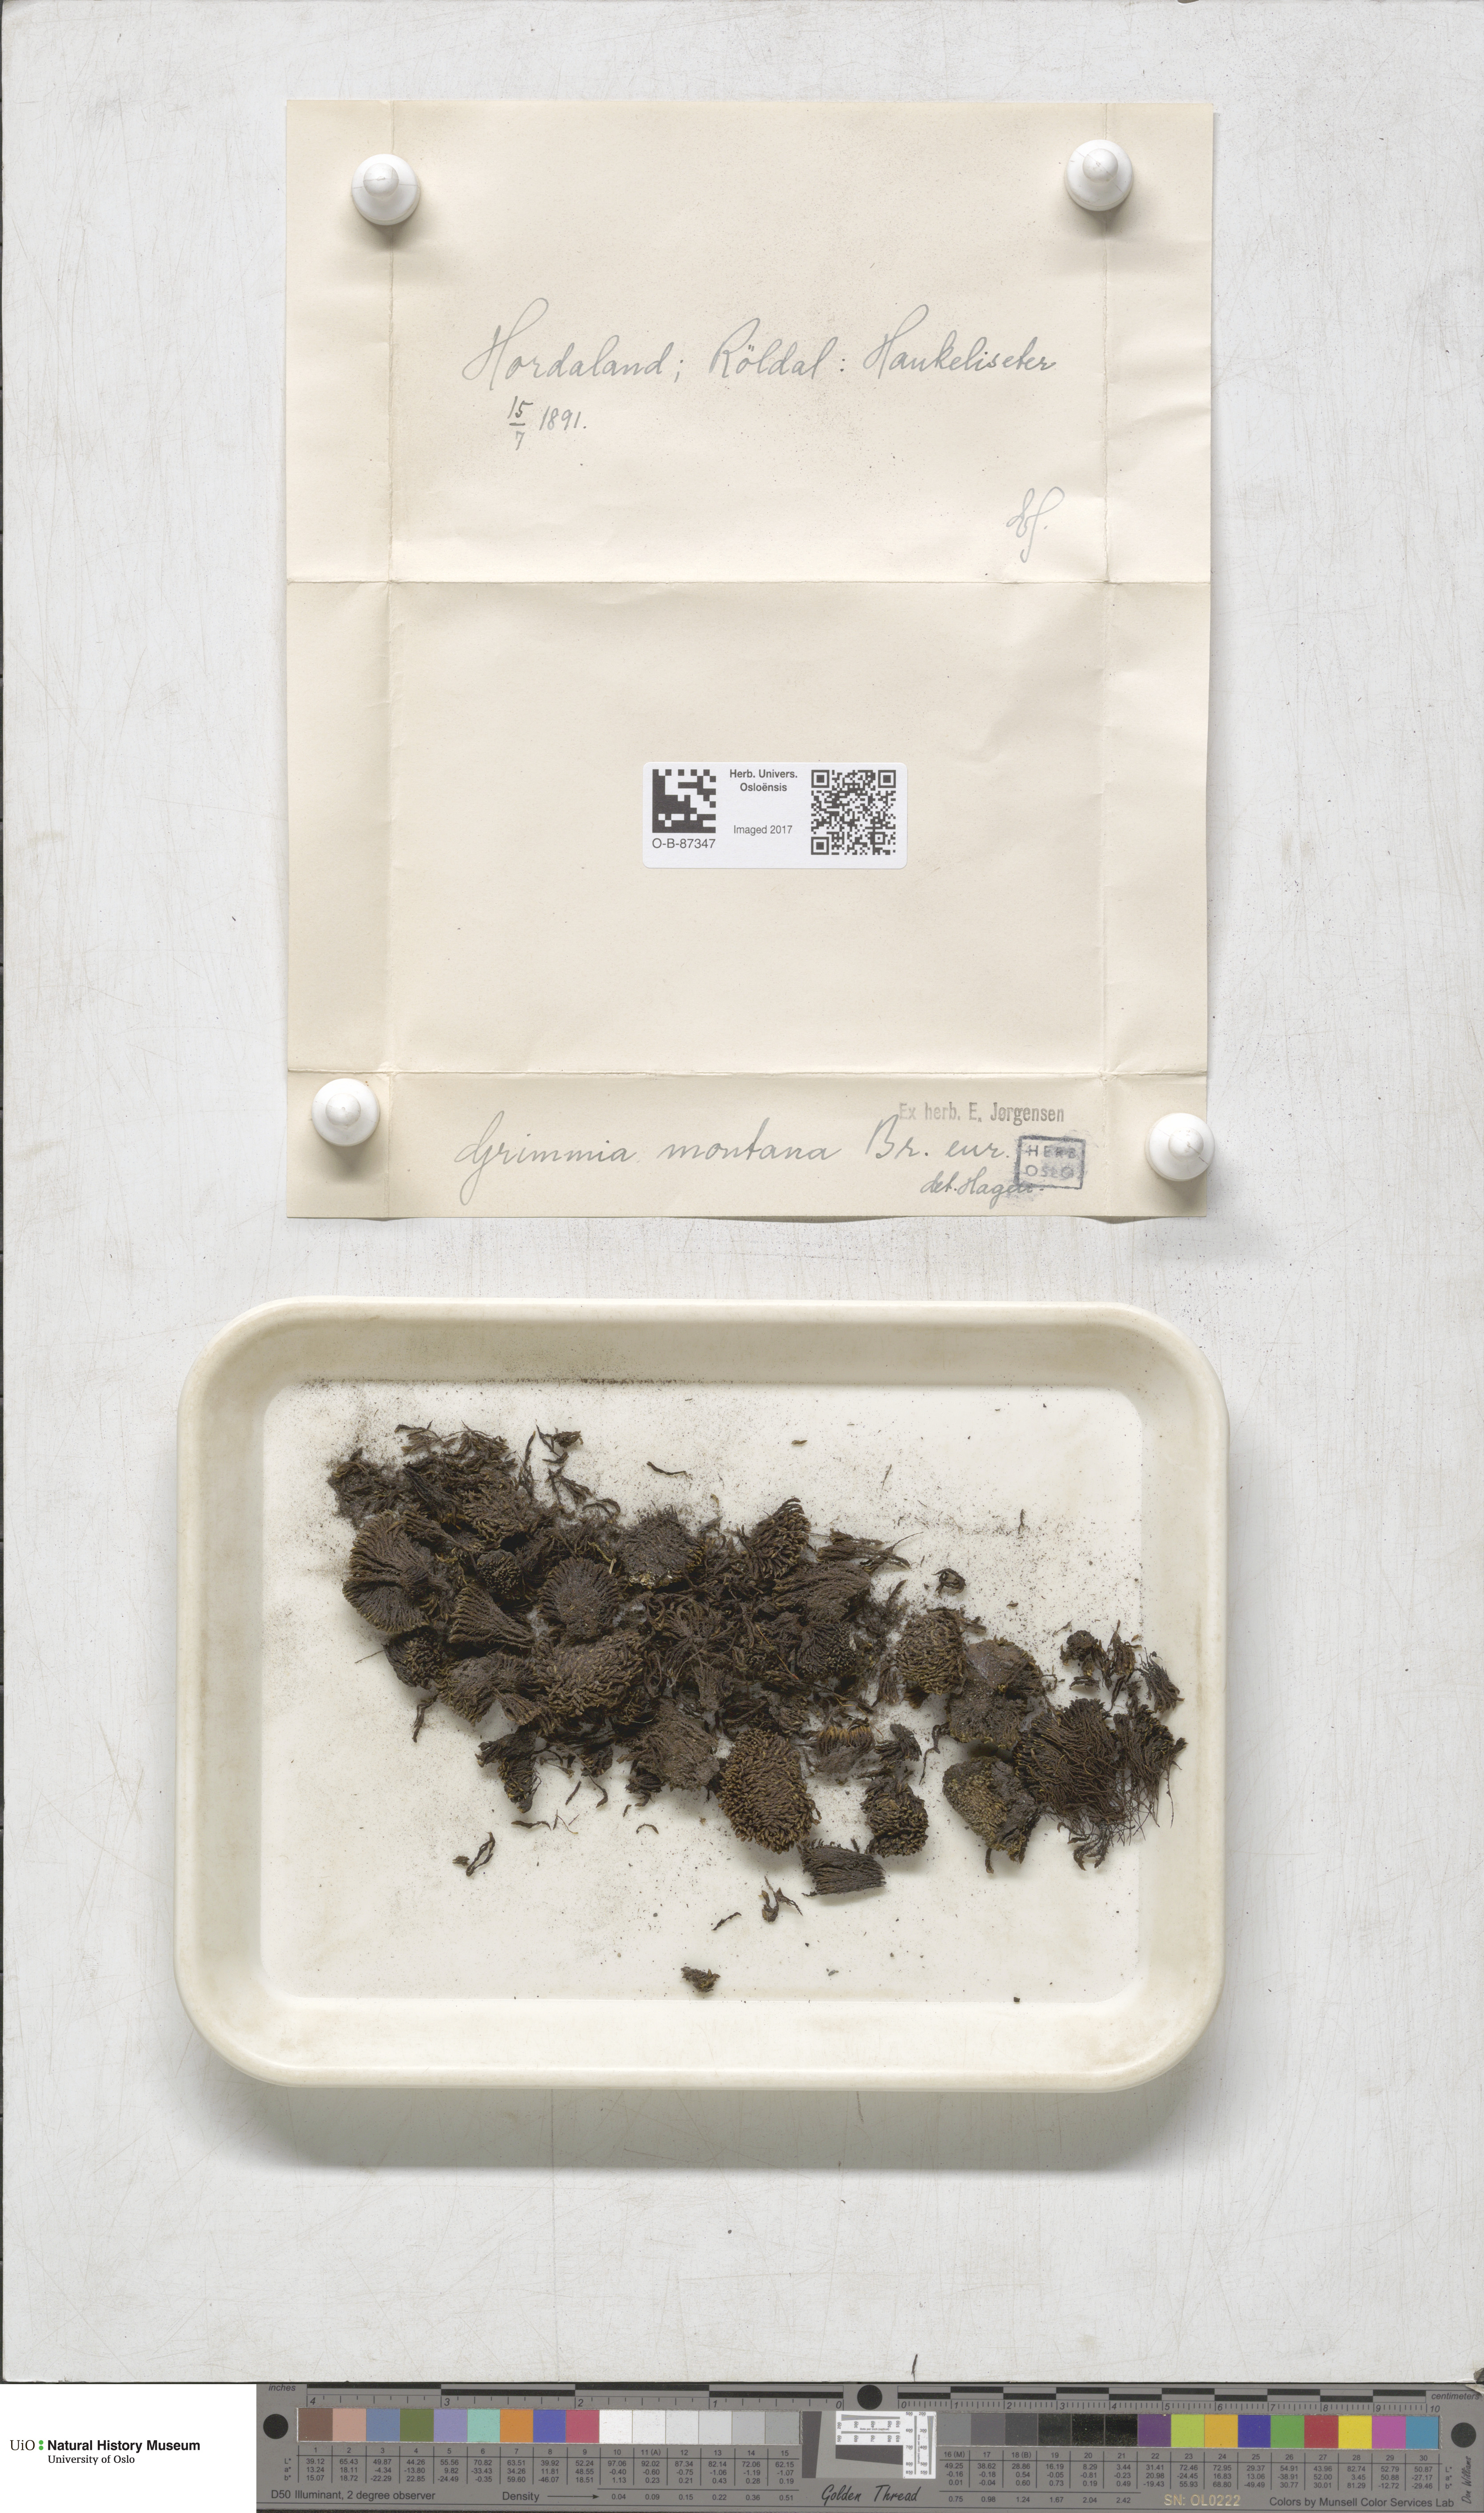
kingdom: Plantae
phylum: Bryophyta
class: Bryopsida
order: Grimmiales
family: Grimmiaceae
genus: Grimmia
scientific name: Grimmia montana
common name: Sun grimmia
